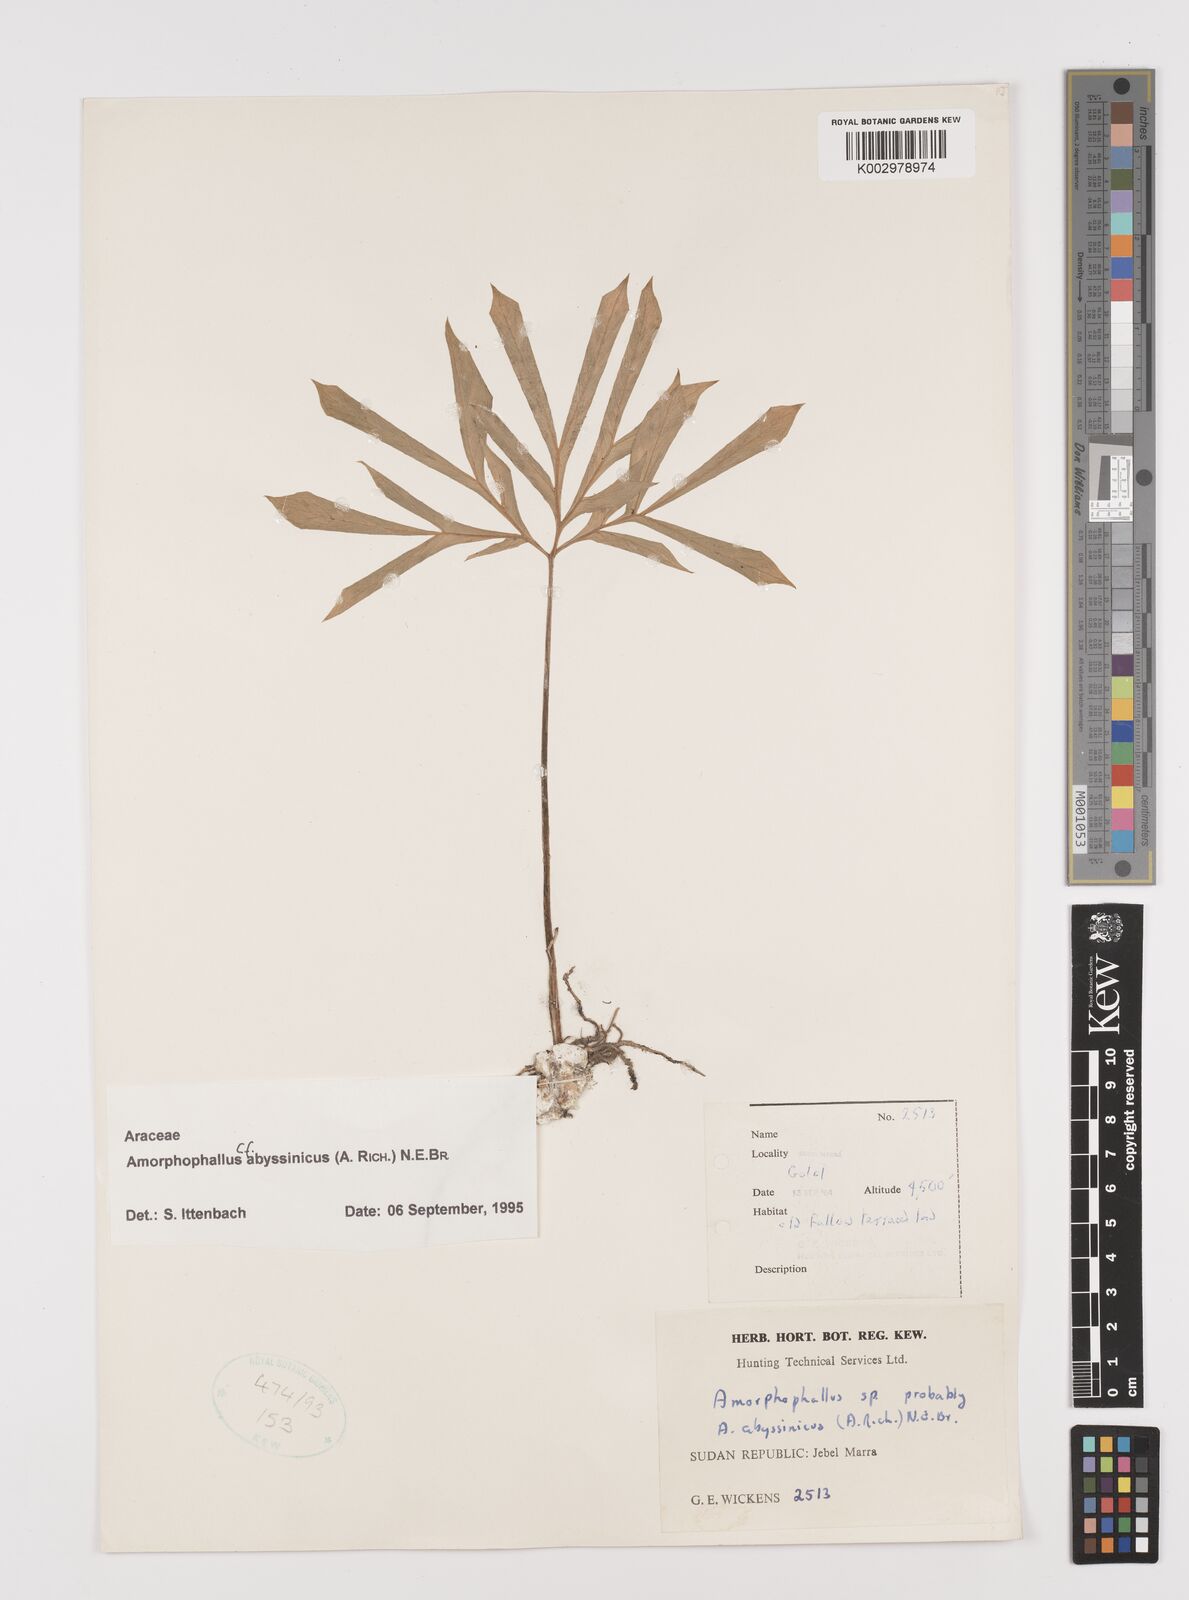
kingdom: Plantae
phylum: Tracheophyta
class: Liliopsida
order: Alismatales
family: Araceae
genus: Amorphophallus
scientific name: Amorphophallus abyssinicus
